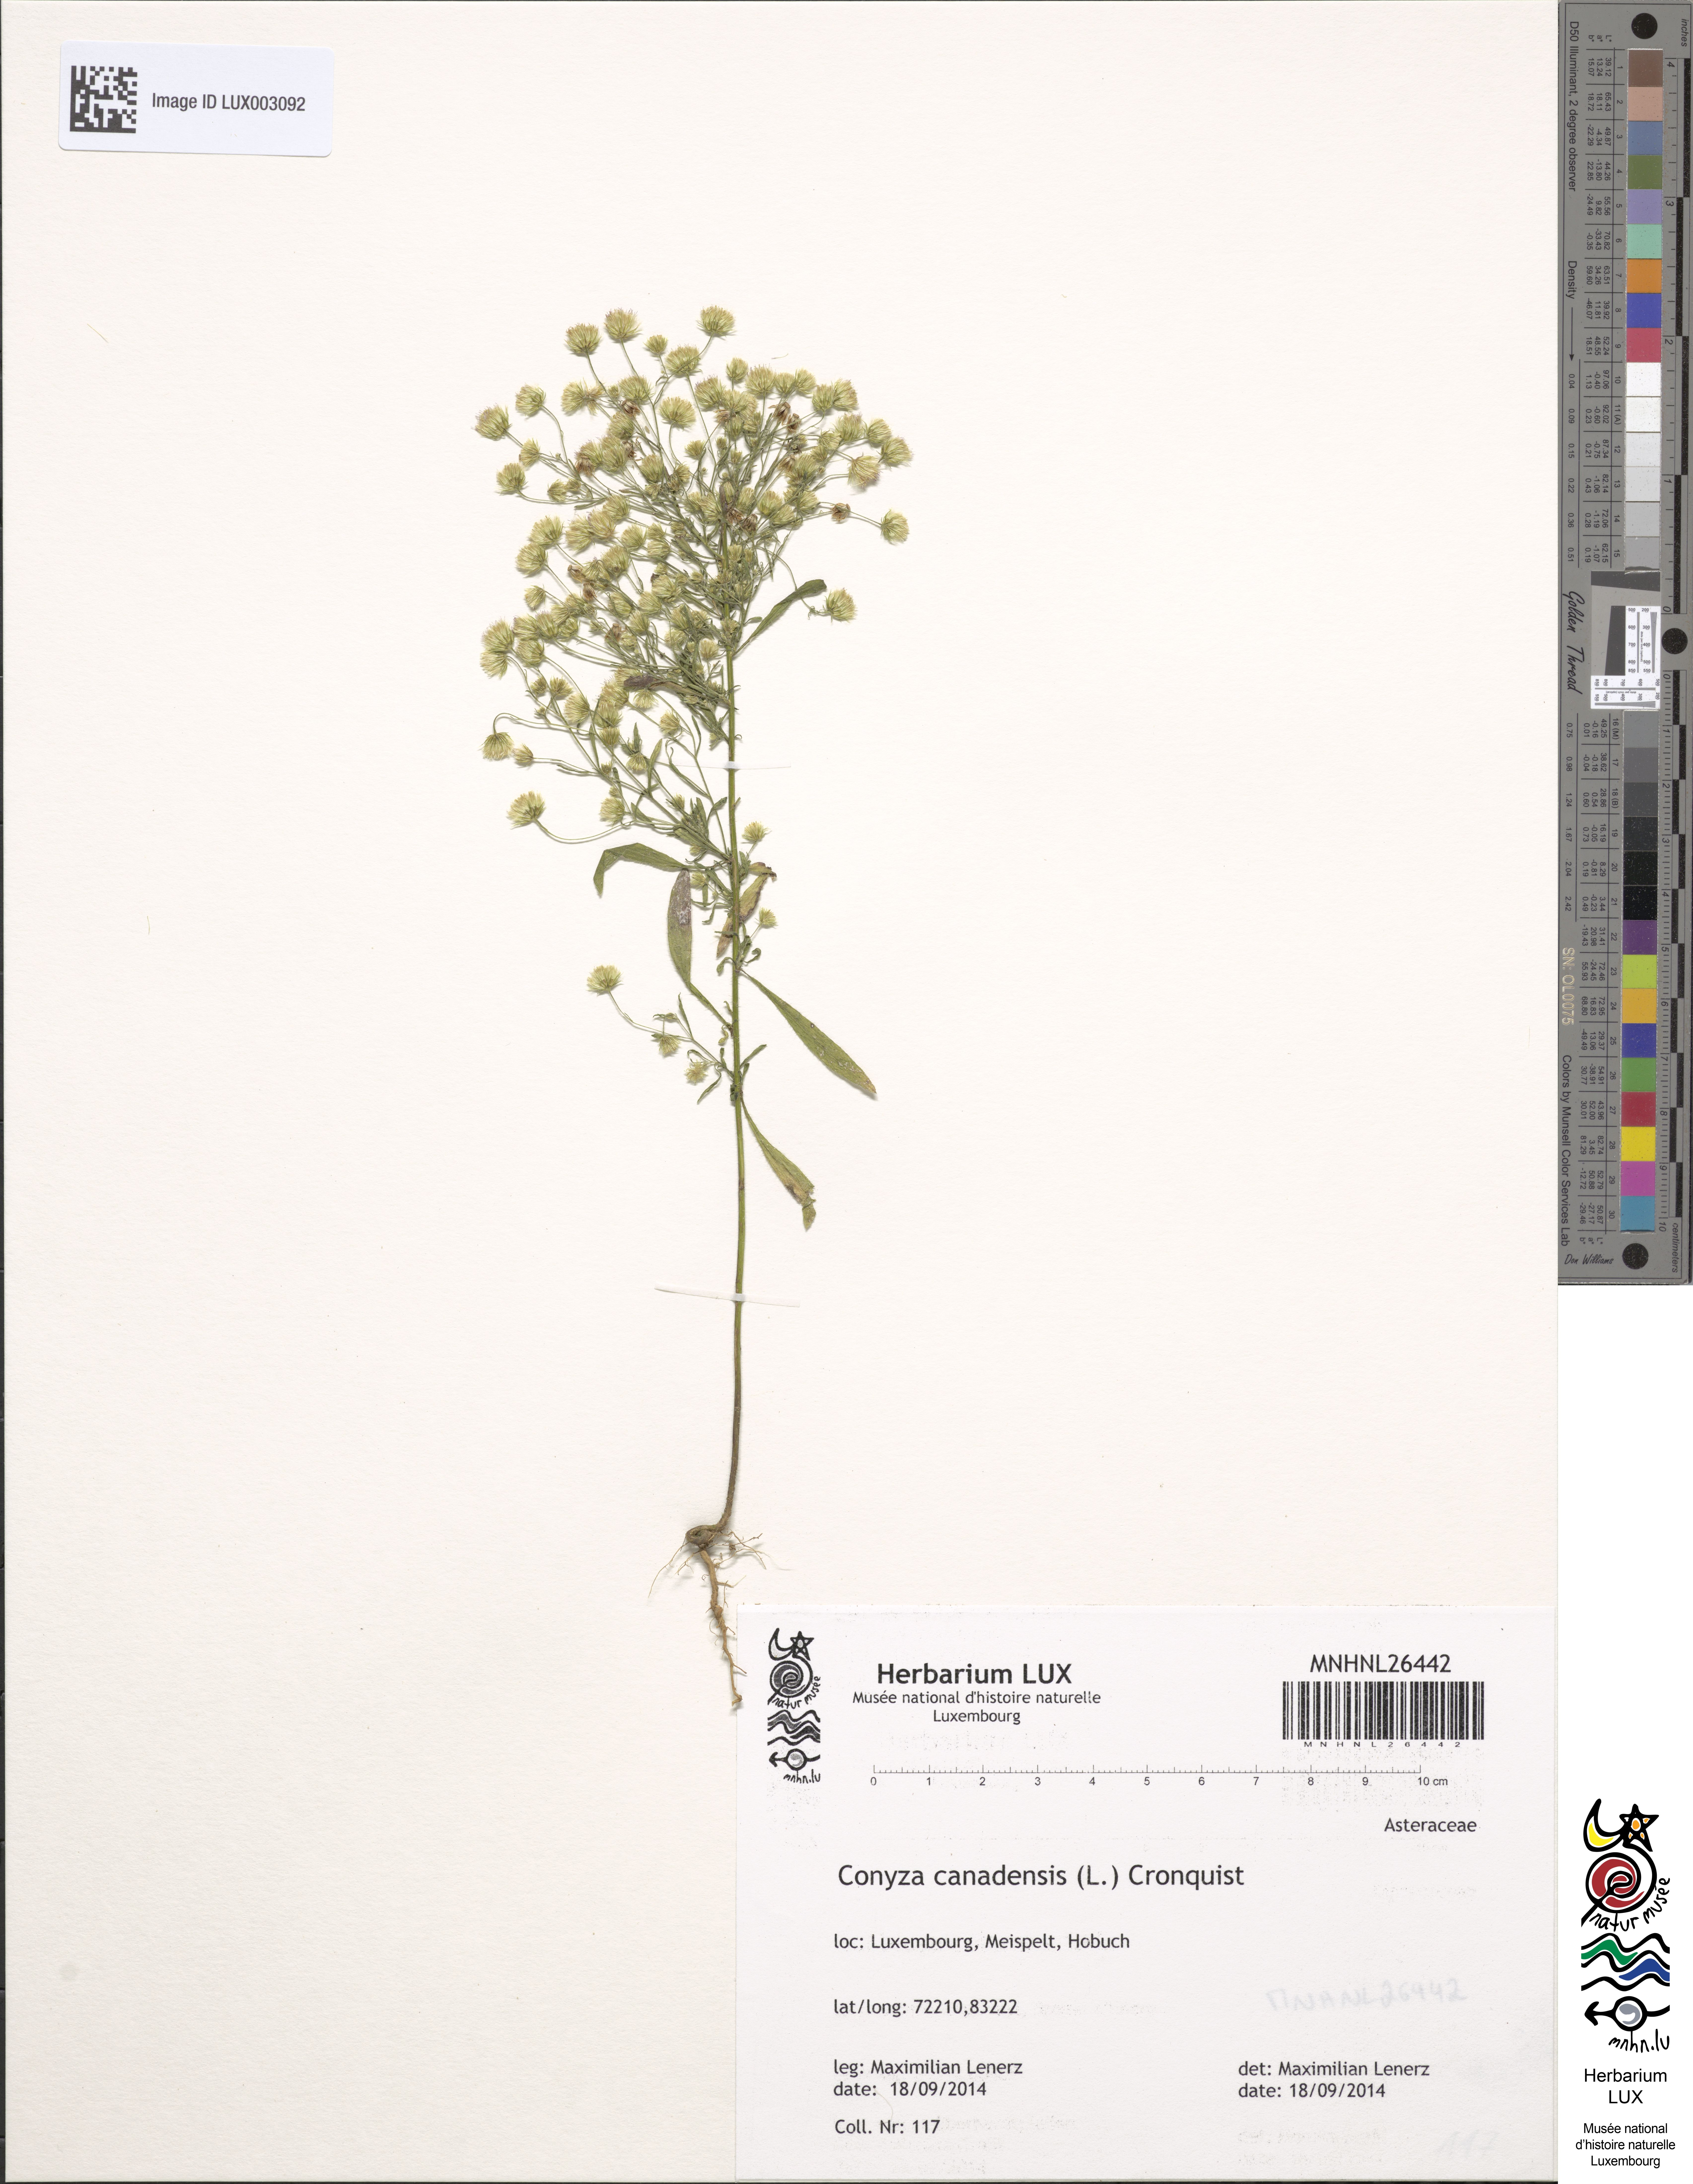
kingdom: Plantae
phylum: Tracheophyta
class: Magnoliopsida
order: Asterales
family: Asteraceae
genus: Erigeron
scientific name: Erigeron canadensis
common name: Canadian fleabane
